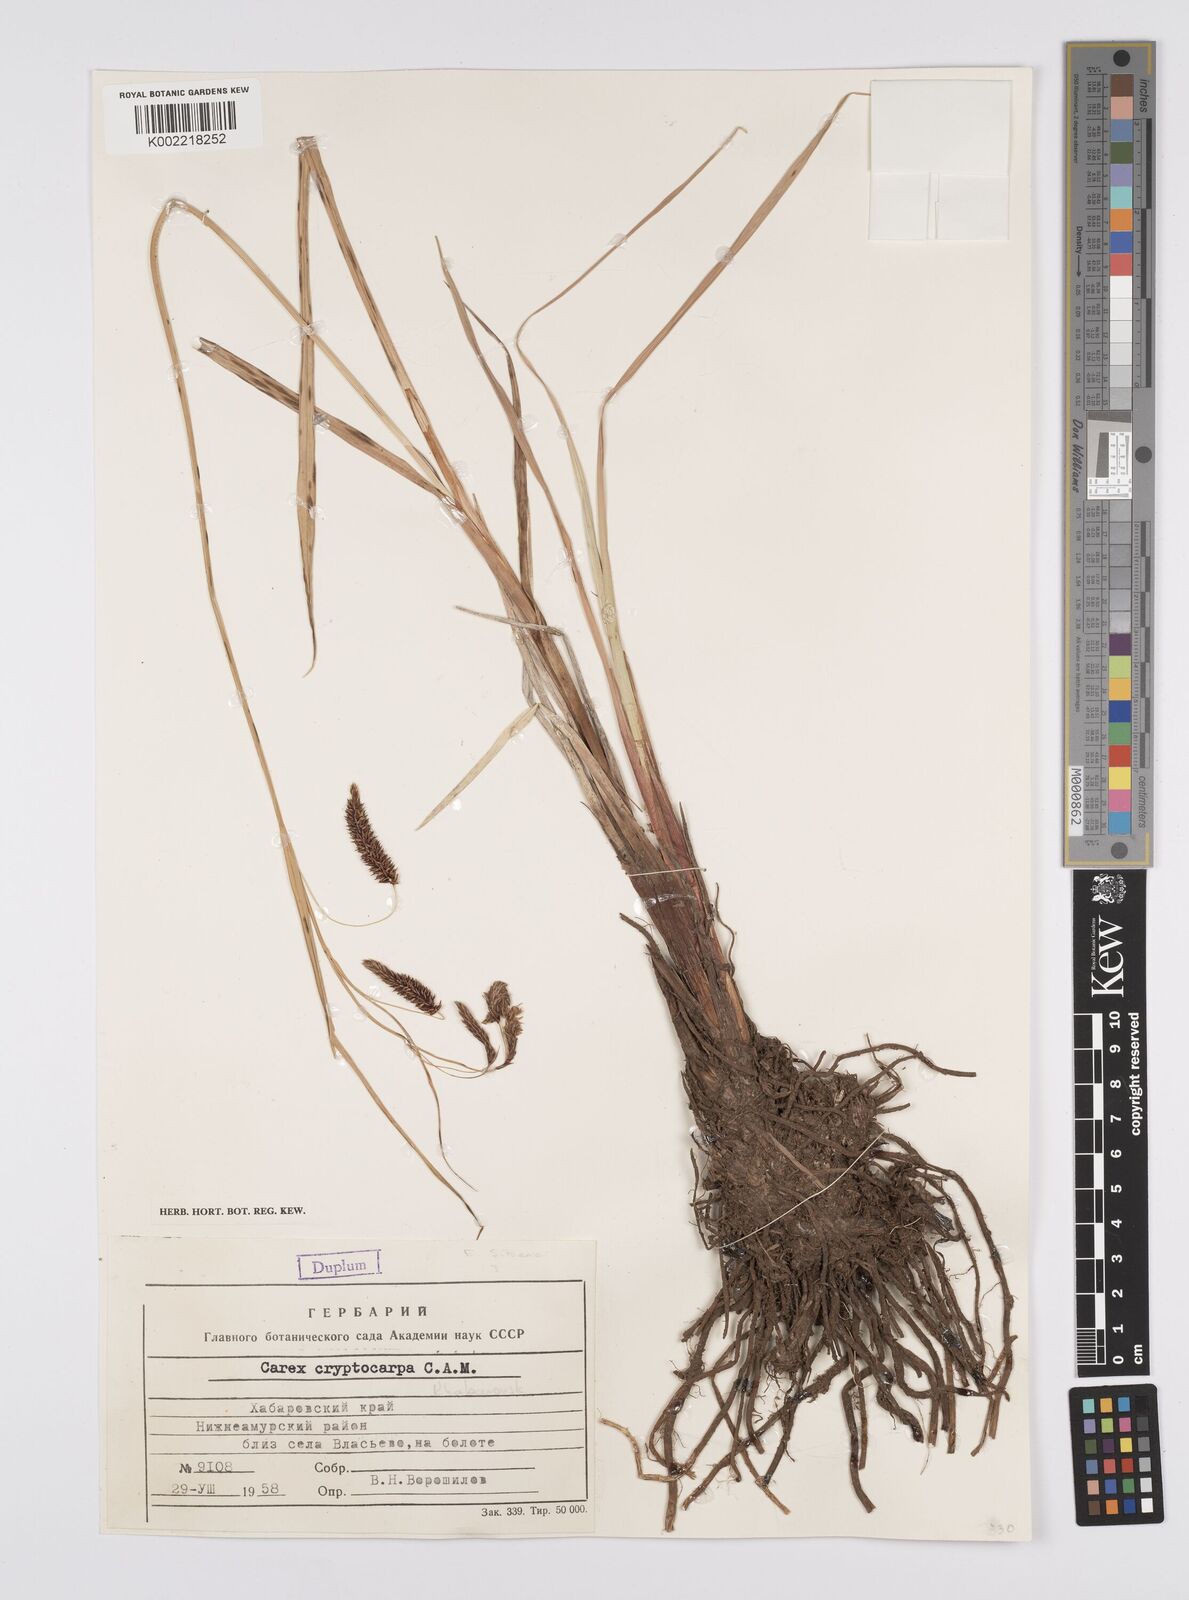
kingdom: Plantae
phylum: Tracheophyta
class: Liliopsida
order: Poales
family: Cyperaceae
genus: Carex
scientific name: Carex lyngbyei
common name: Lyngbye's sedge
